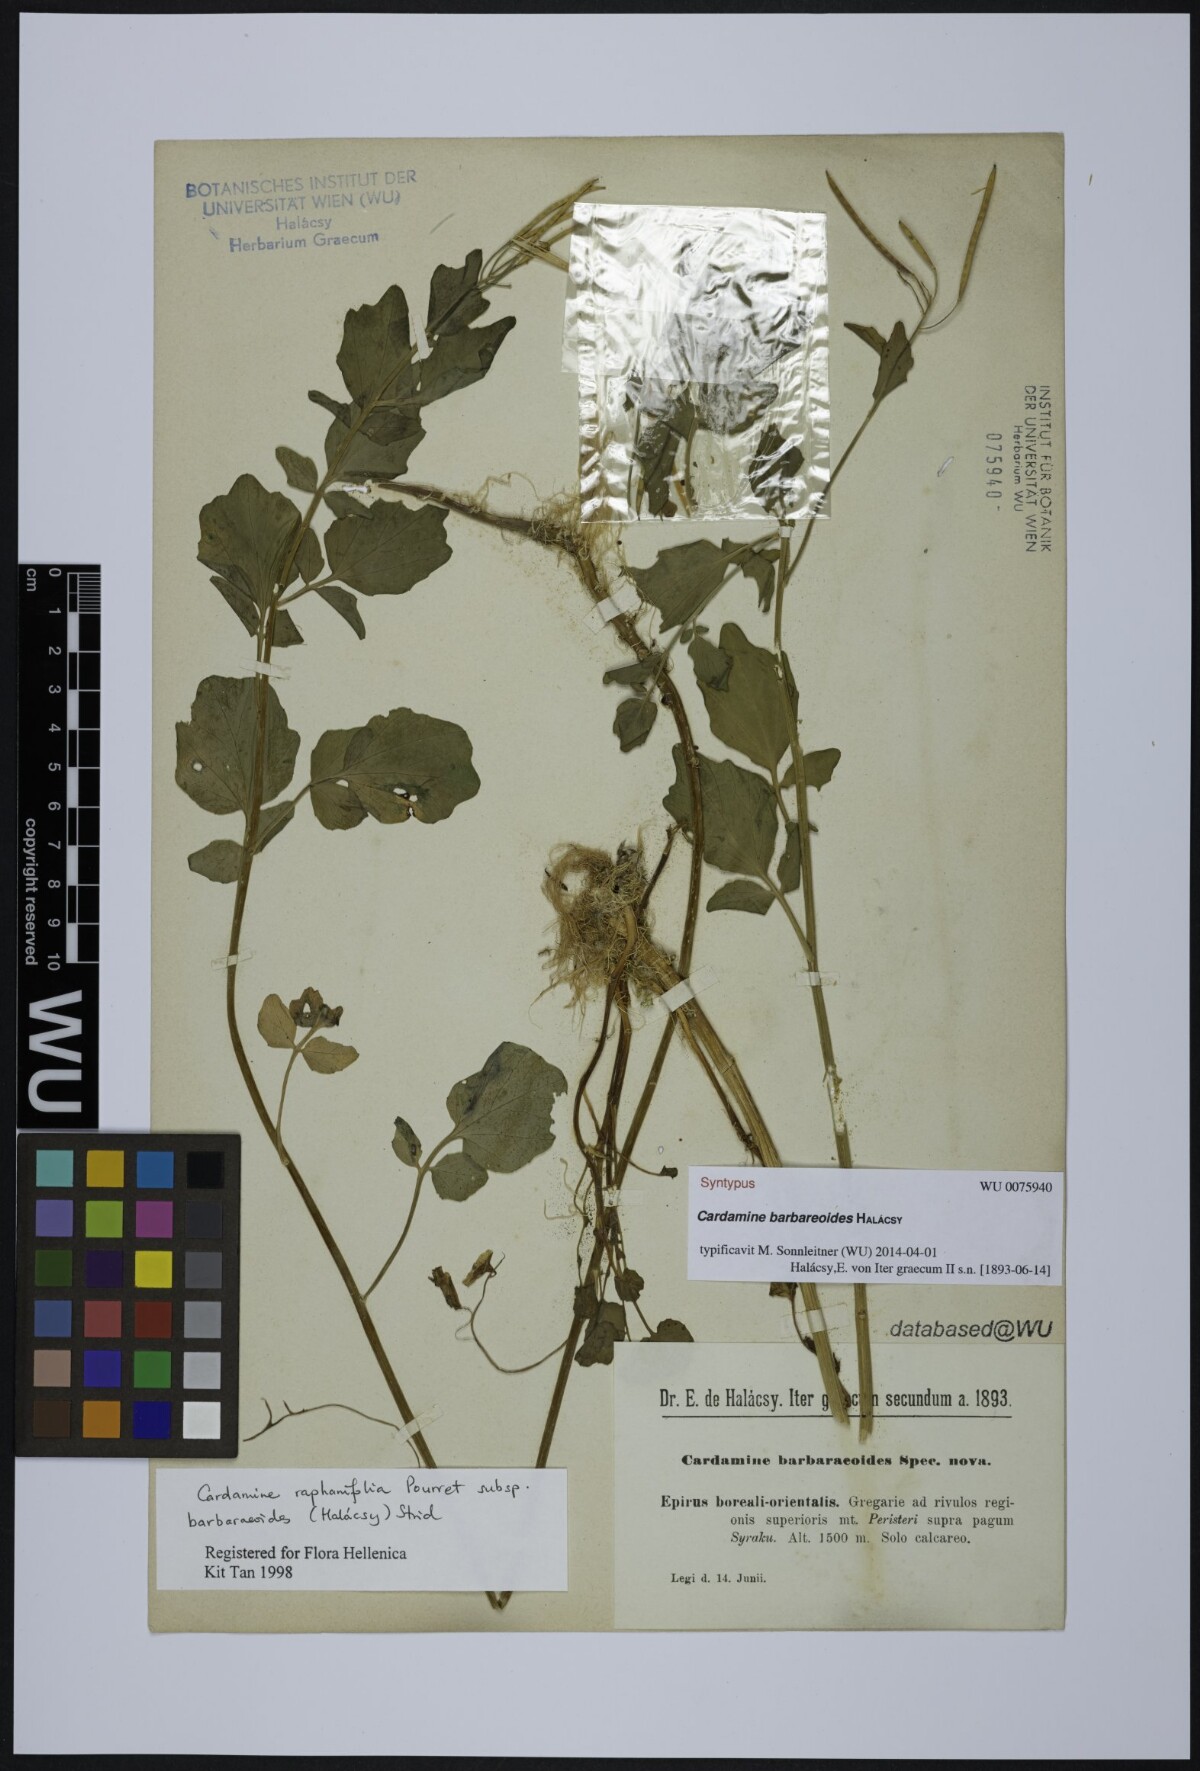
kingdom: Plantae
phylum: Tracheophyta
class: Magnoliopsida
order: Brassicales
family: Brassicaceae
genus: Cardamine
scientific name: Cardamine barbaraeoides
